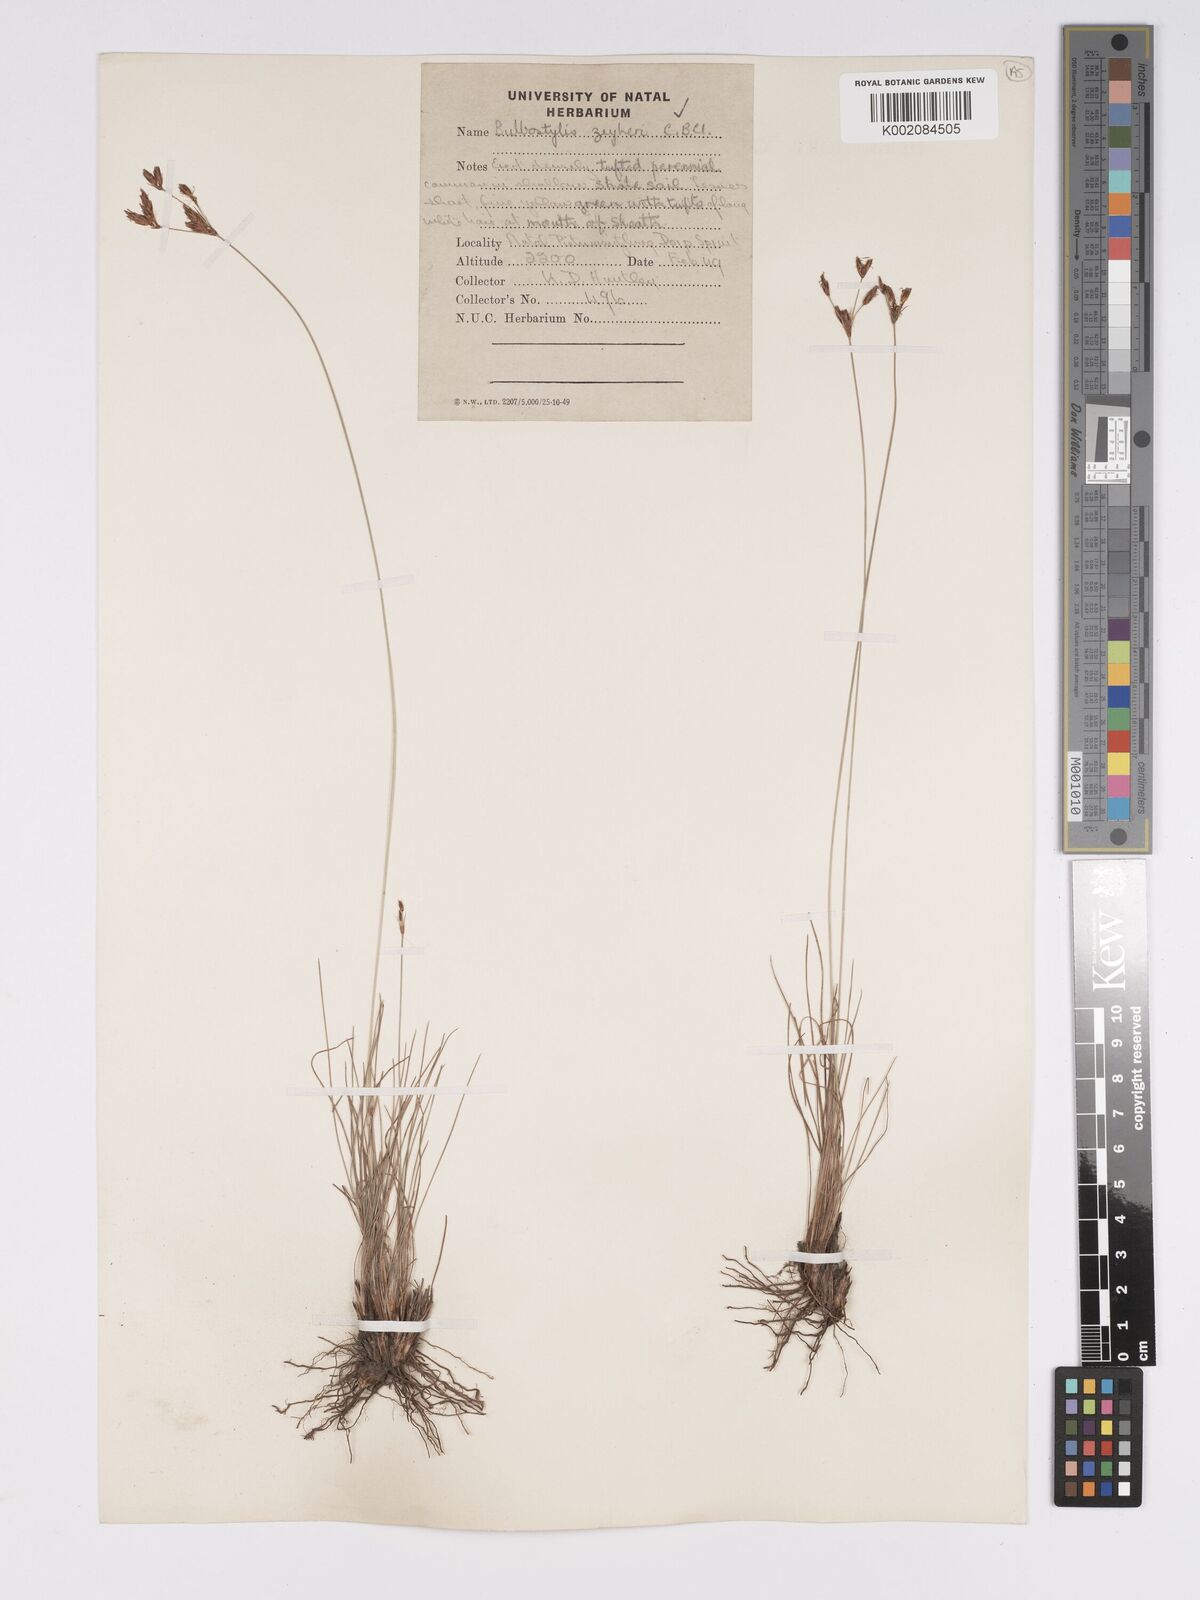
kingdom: Plantae
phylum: Tracheophyta
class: Liliopsida
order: Poales
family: Cyperaceae
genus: Bulbostylis
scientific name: Bulbostylis contexta
